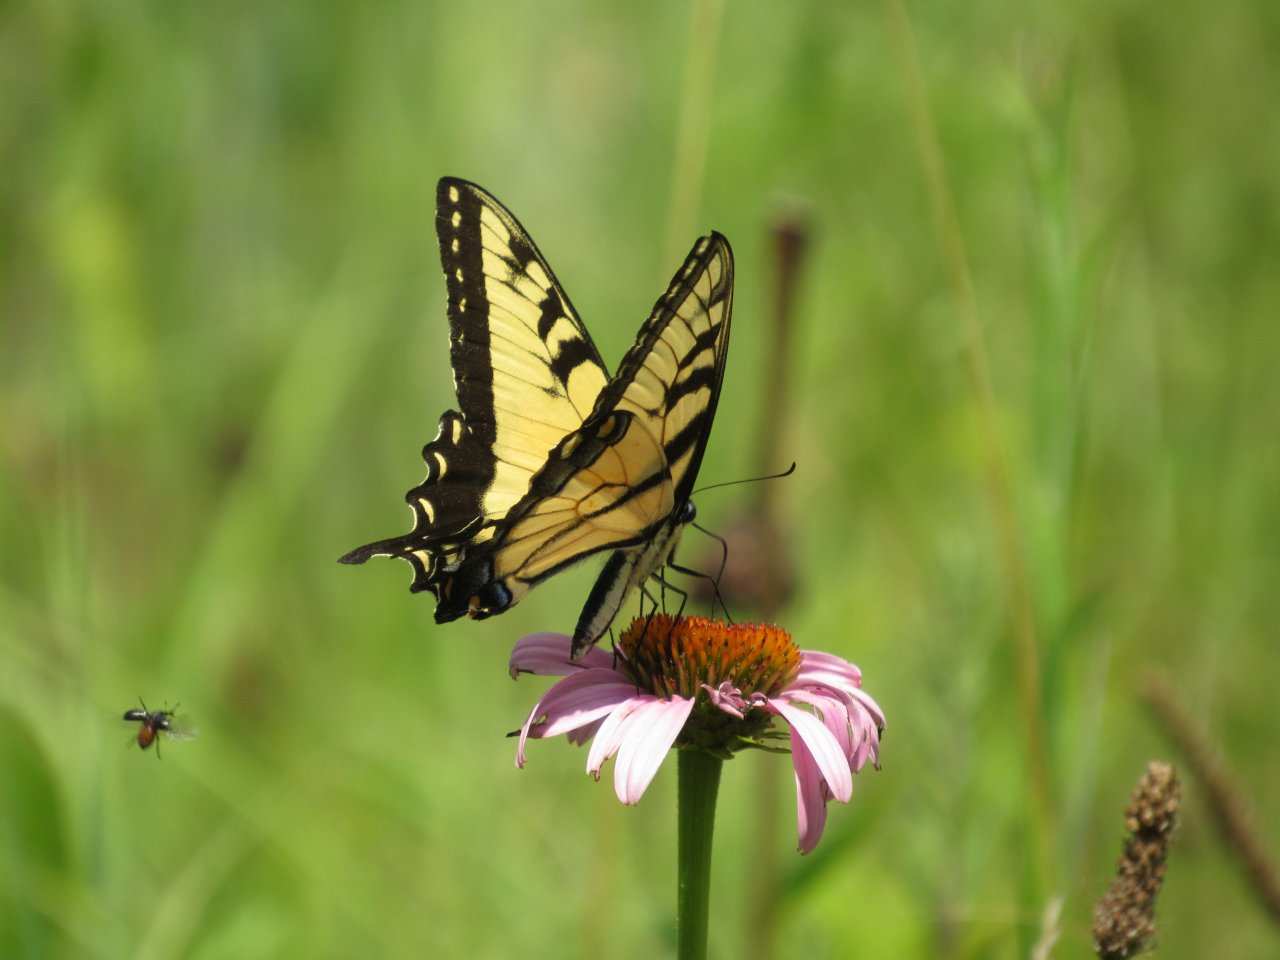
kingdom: Animalia
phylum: Arthropoda
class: Insecta
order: Lepidoptera
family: Papilionidae
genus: Pterourus
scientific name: Pterourus glaucus
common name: Eastern Tiger Swallowtail
